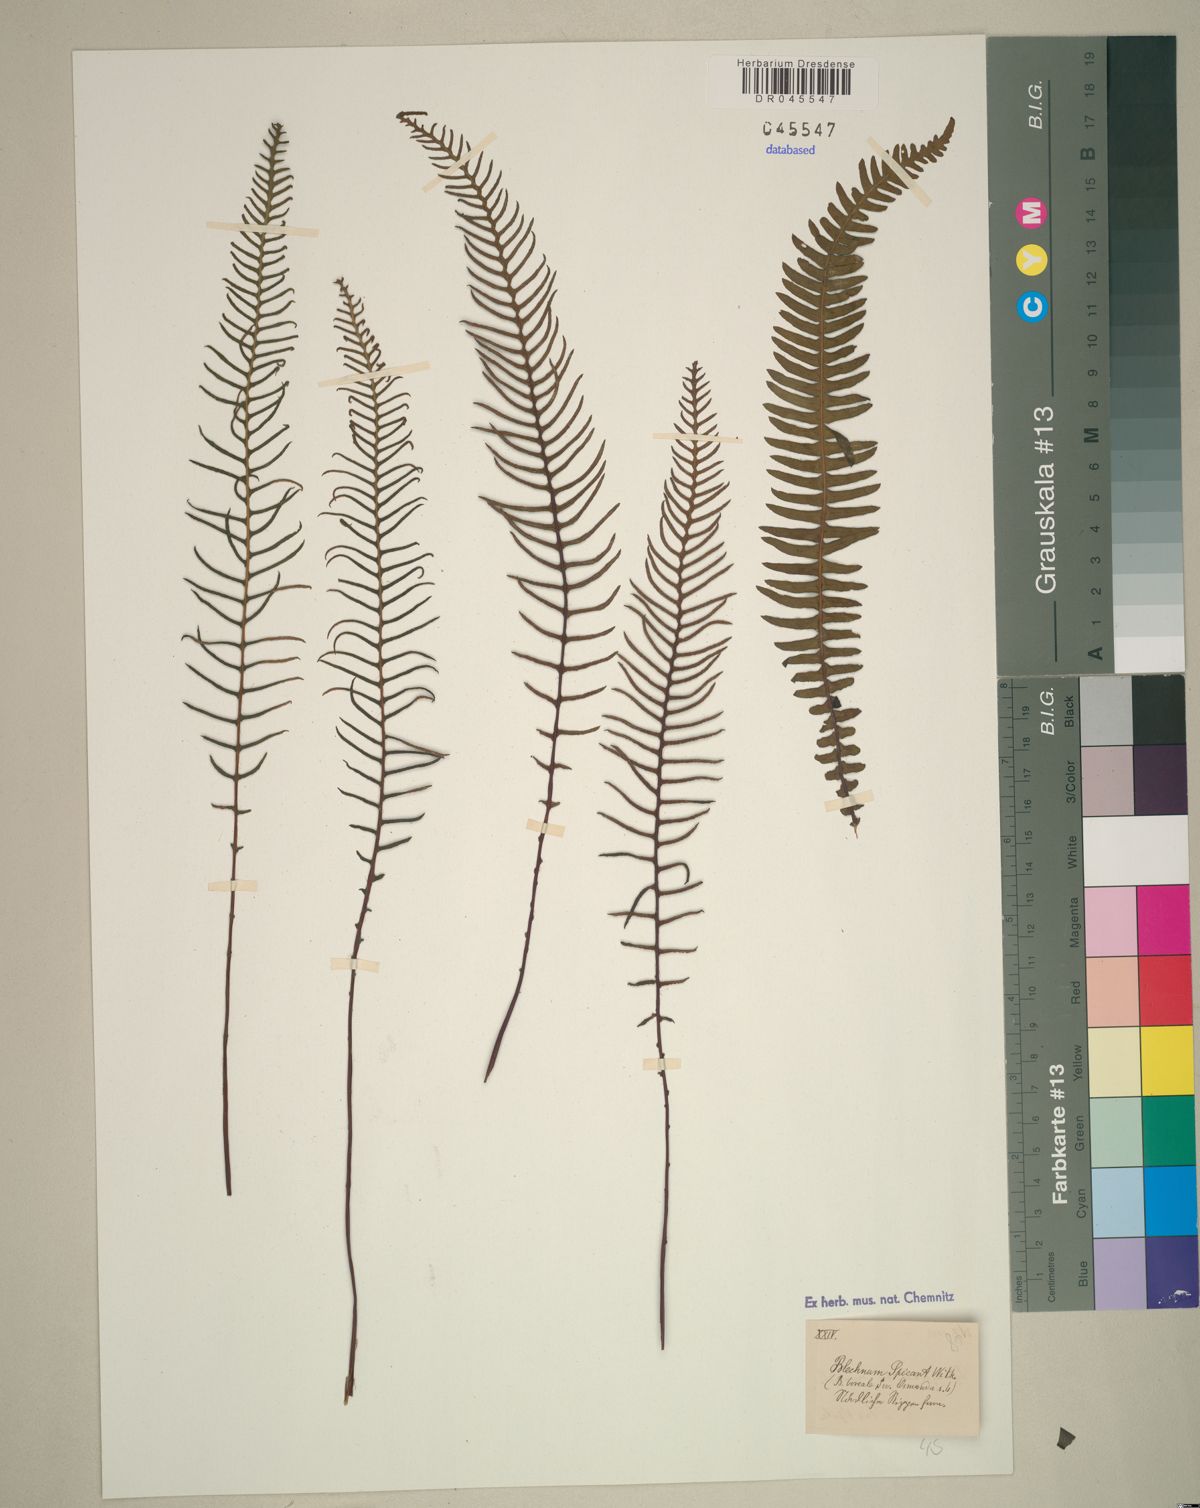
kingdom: Plantae
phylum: Tracheophyta
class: Polypodiopsida
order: Polypodiales
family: Blechnaceae
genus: Struthiopteris
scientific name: Struthiopteris spicant
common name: Deer fern
